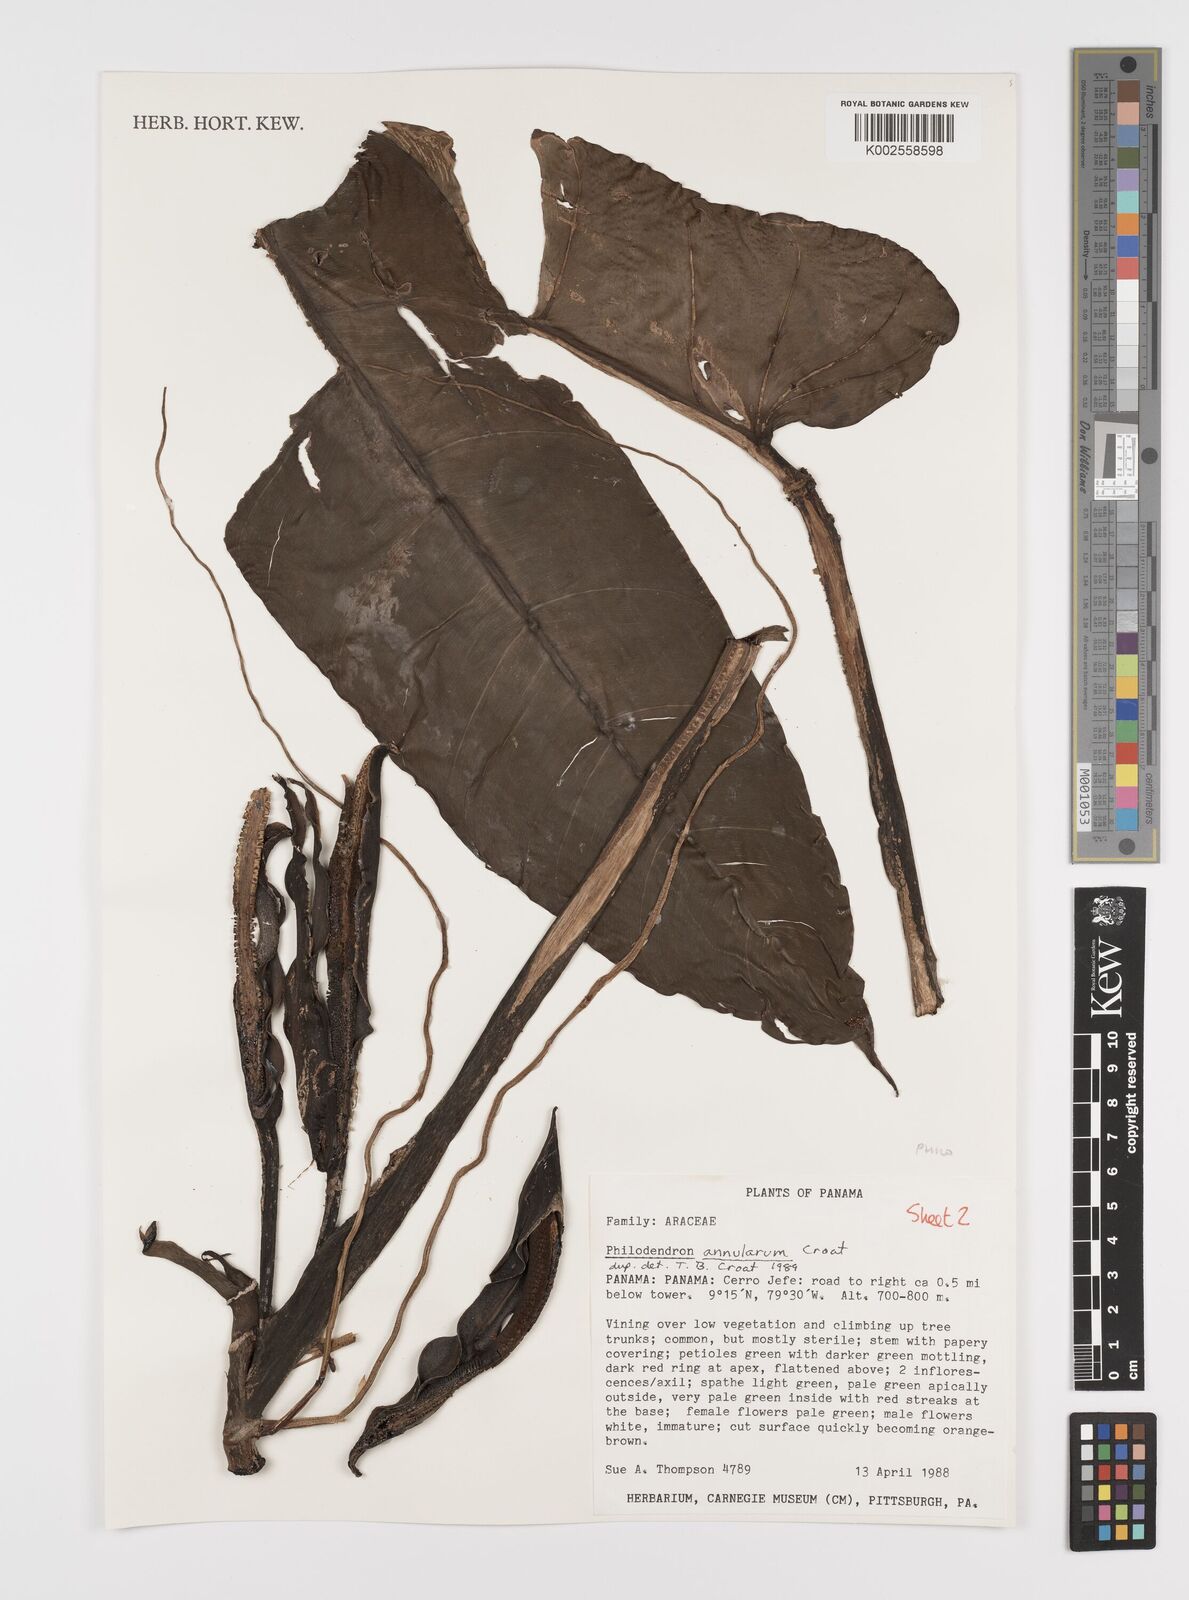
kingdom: Plantae
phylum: Tracheophyta
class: Liliopsida
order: Alismatales
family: Araceae
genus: Philodendron
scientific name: Philodendron annulatum
